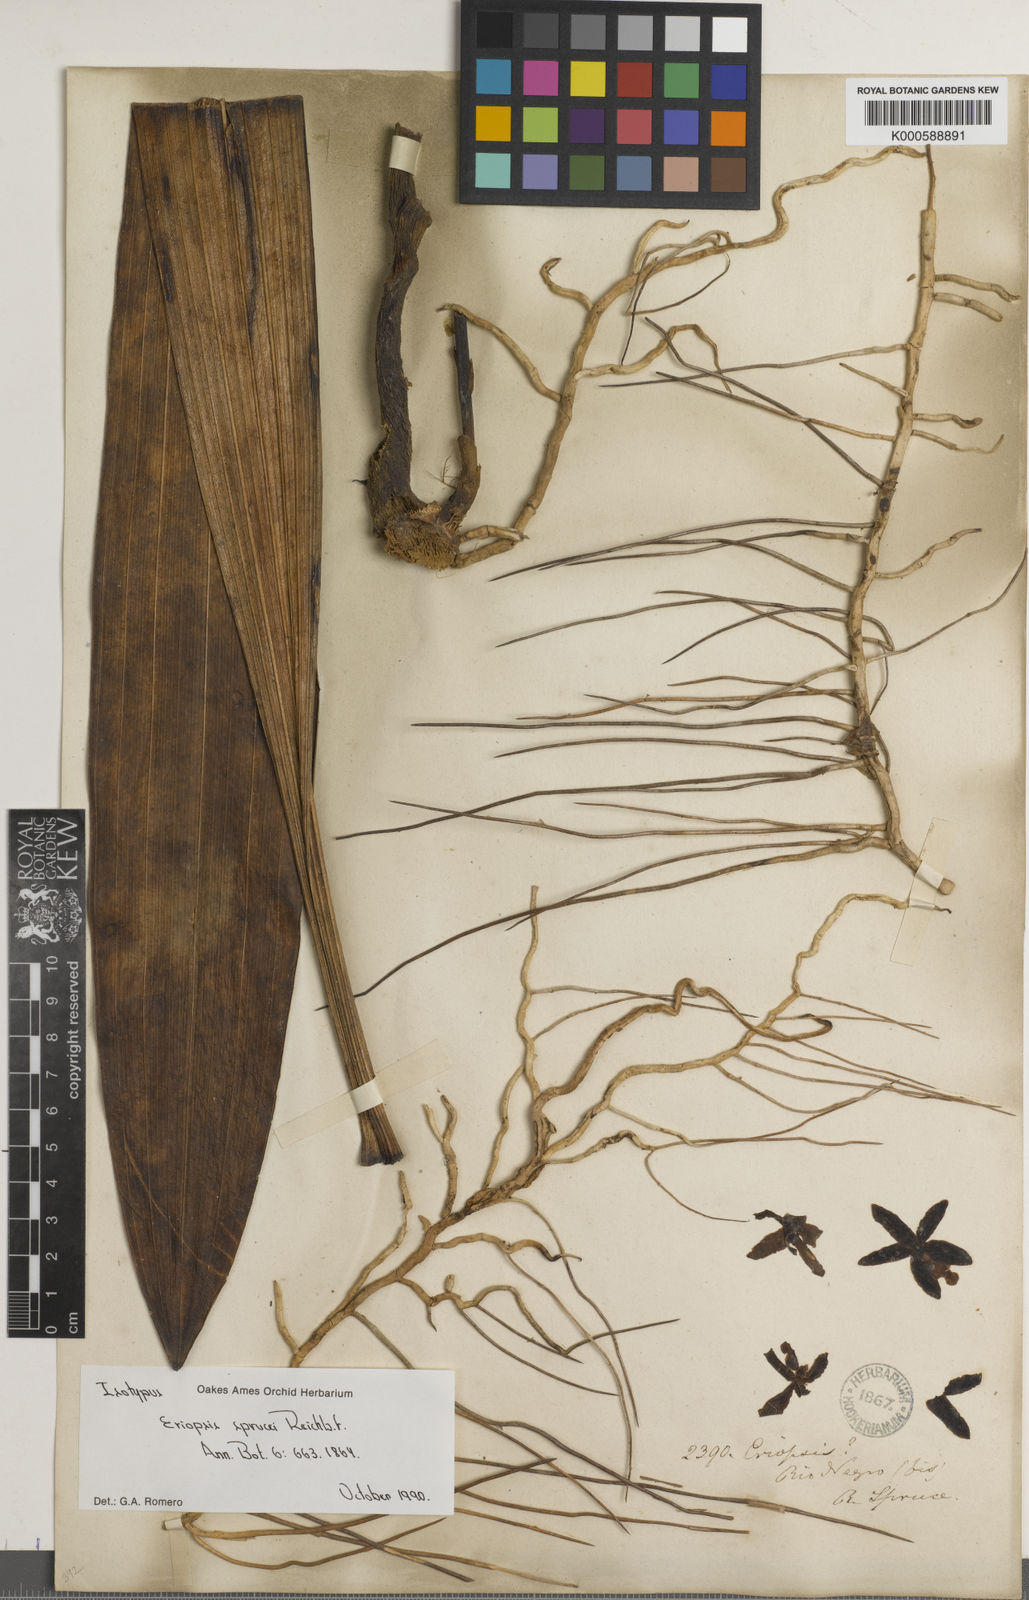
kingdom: Plantae
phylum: Tracheophyta
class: Liliopsida
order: Asparagales
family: Orchidaceae
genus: Eriopsis
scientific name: Eriopsis altissima
